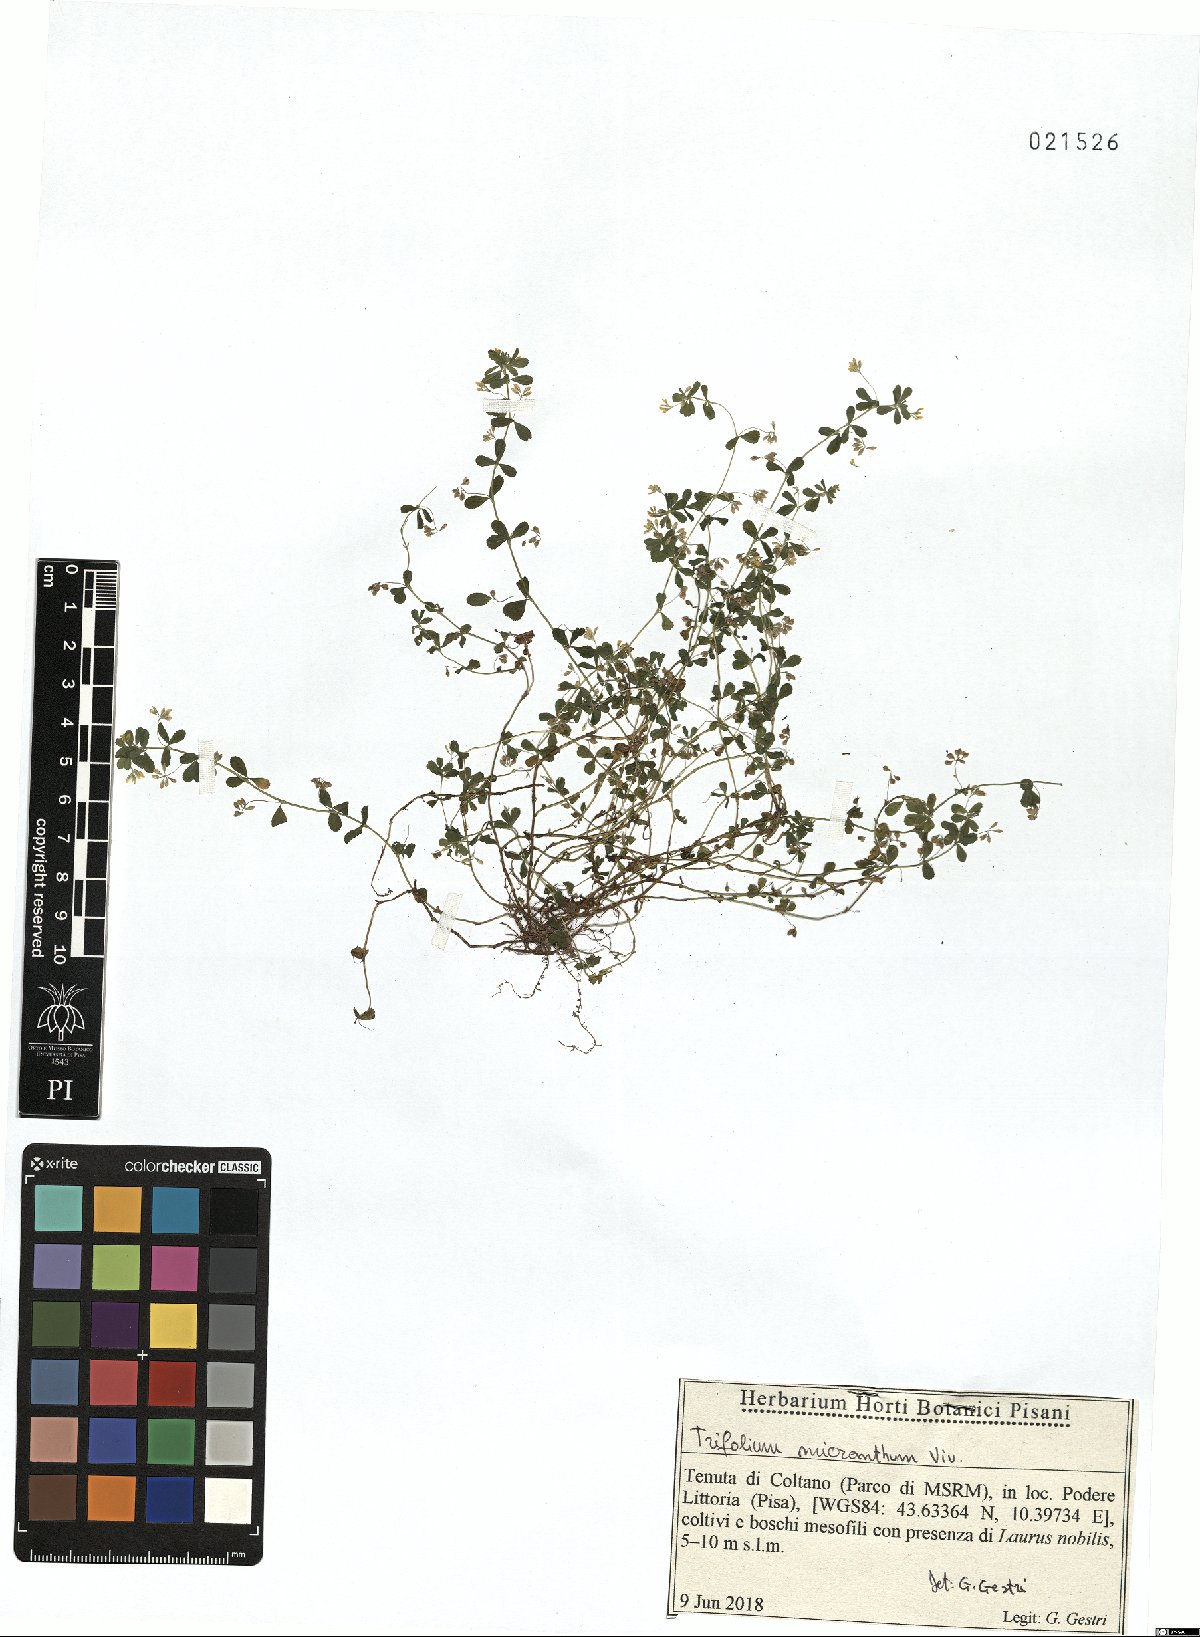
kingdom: Plantae
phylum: Tracheophyta
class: Magnoliopsida
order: Fabales
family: Fabaceae
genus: Trifolium
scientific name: Trifolium micranthum
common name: Slender trefoil
